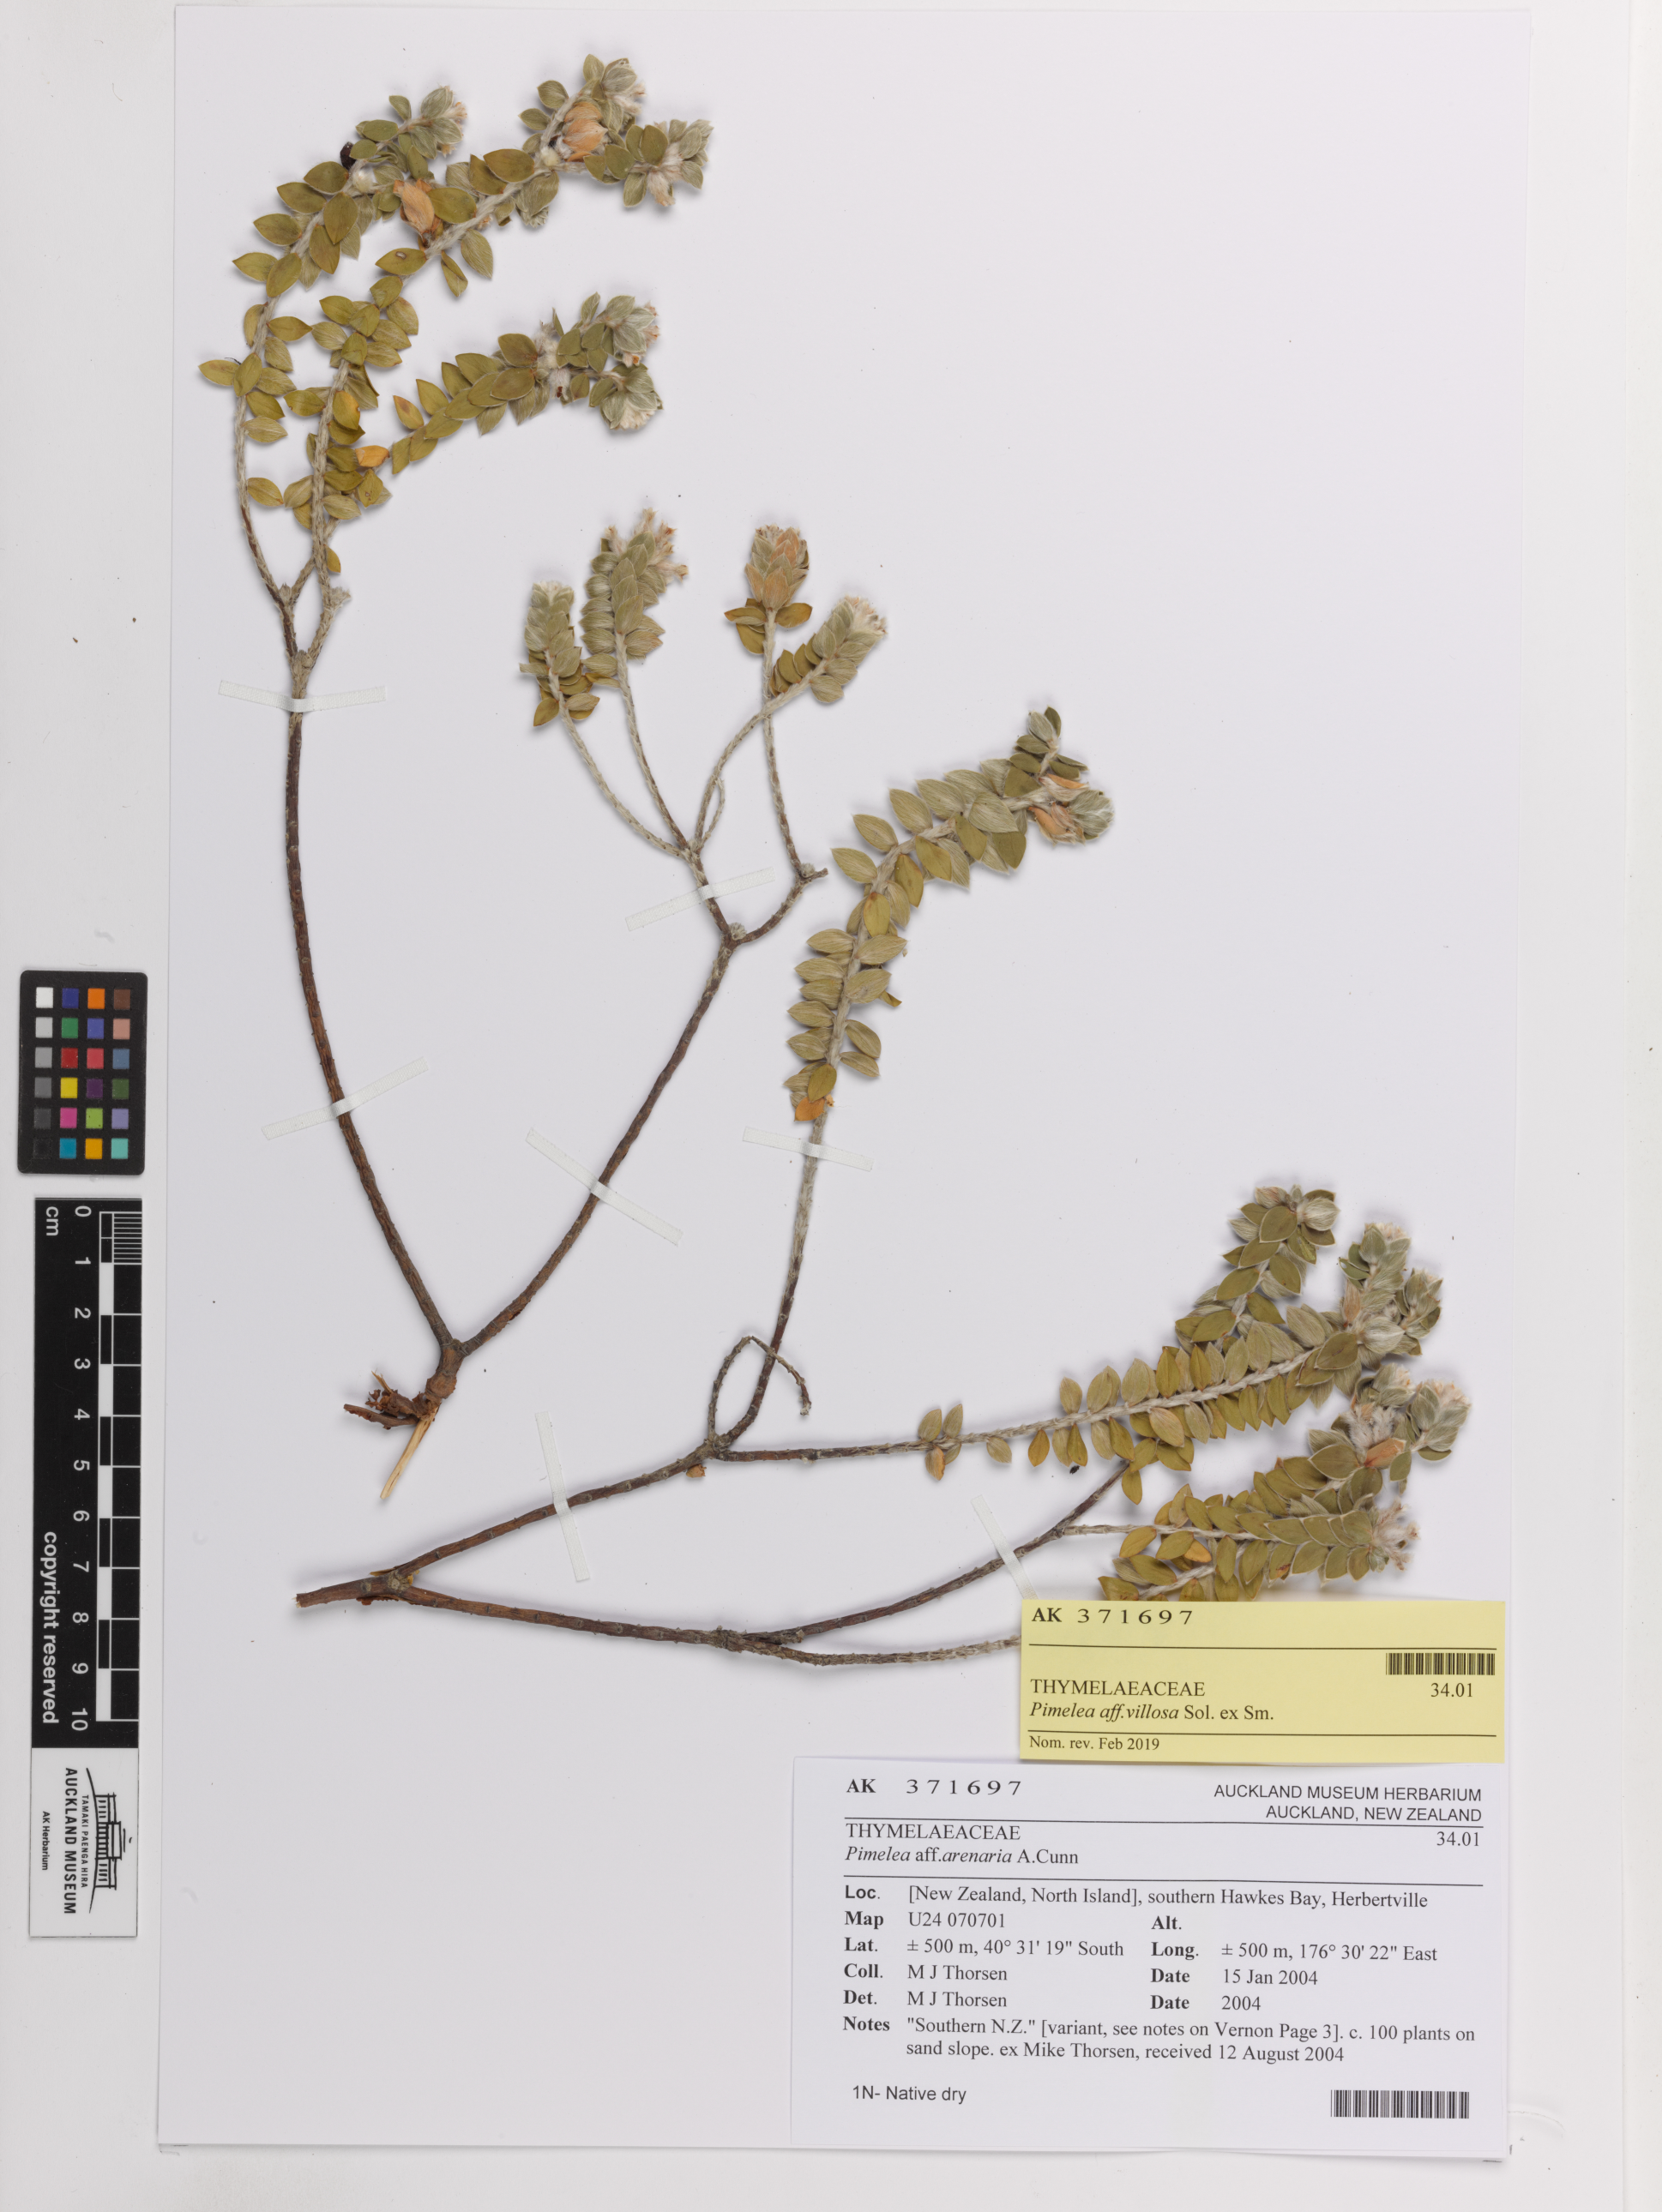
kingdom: Plantae
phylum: Tracheophyta
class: Magnoliopsida
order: Malvales
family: Thymelaeaceae
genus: Pimelea
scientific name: Pimelea villosa
